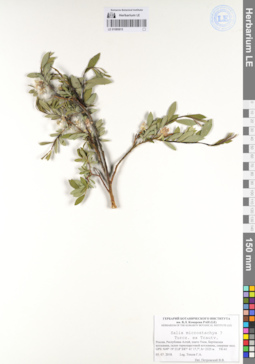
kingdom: Plantae
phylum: Tracheophyta
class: Magnoliopsida
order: Malpighiales
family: Salicaceae
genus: Salix
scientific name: Salix microstachya
